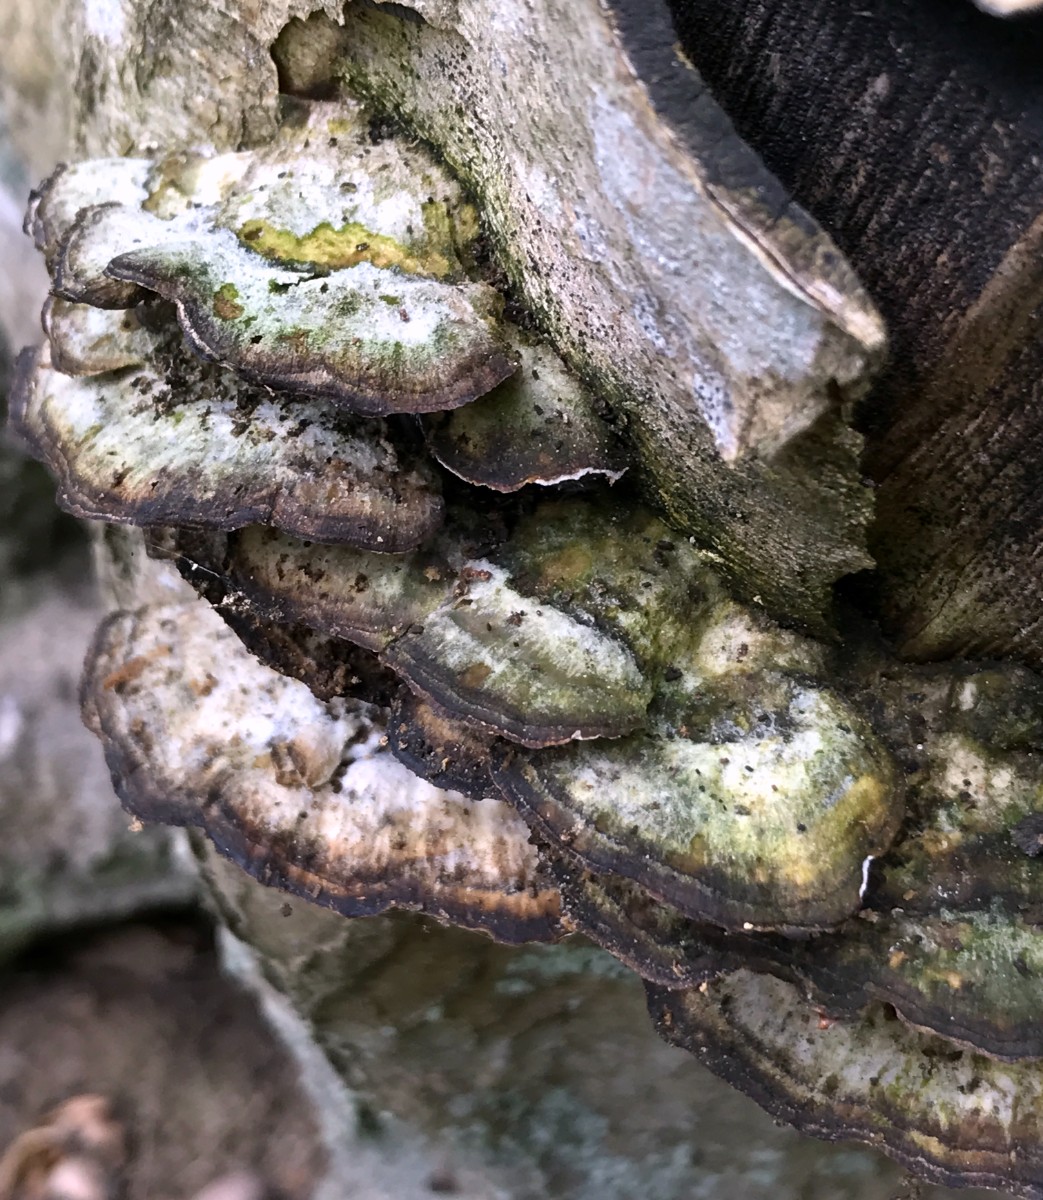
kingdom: Fungi
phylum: Basidiomycota
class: Agaricomycetes
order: Polyporales
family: Phanerochaetaceae
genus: Bjerkandera
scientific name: Bjerkandera adusta
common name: sveden sodporesvamp
